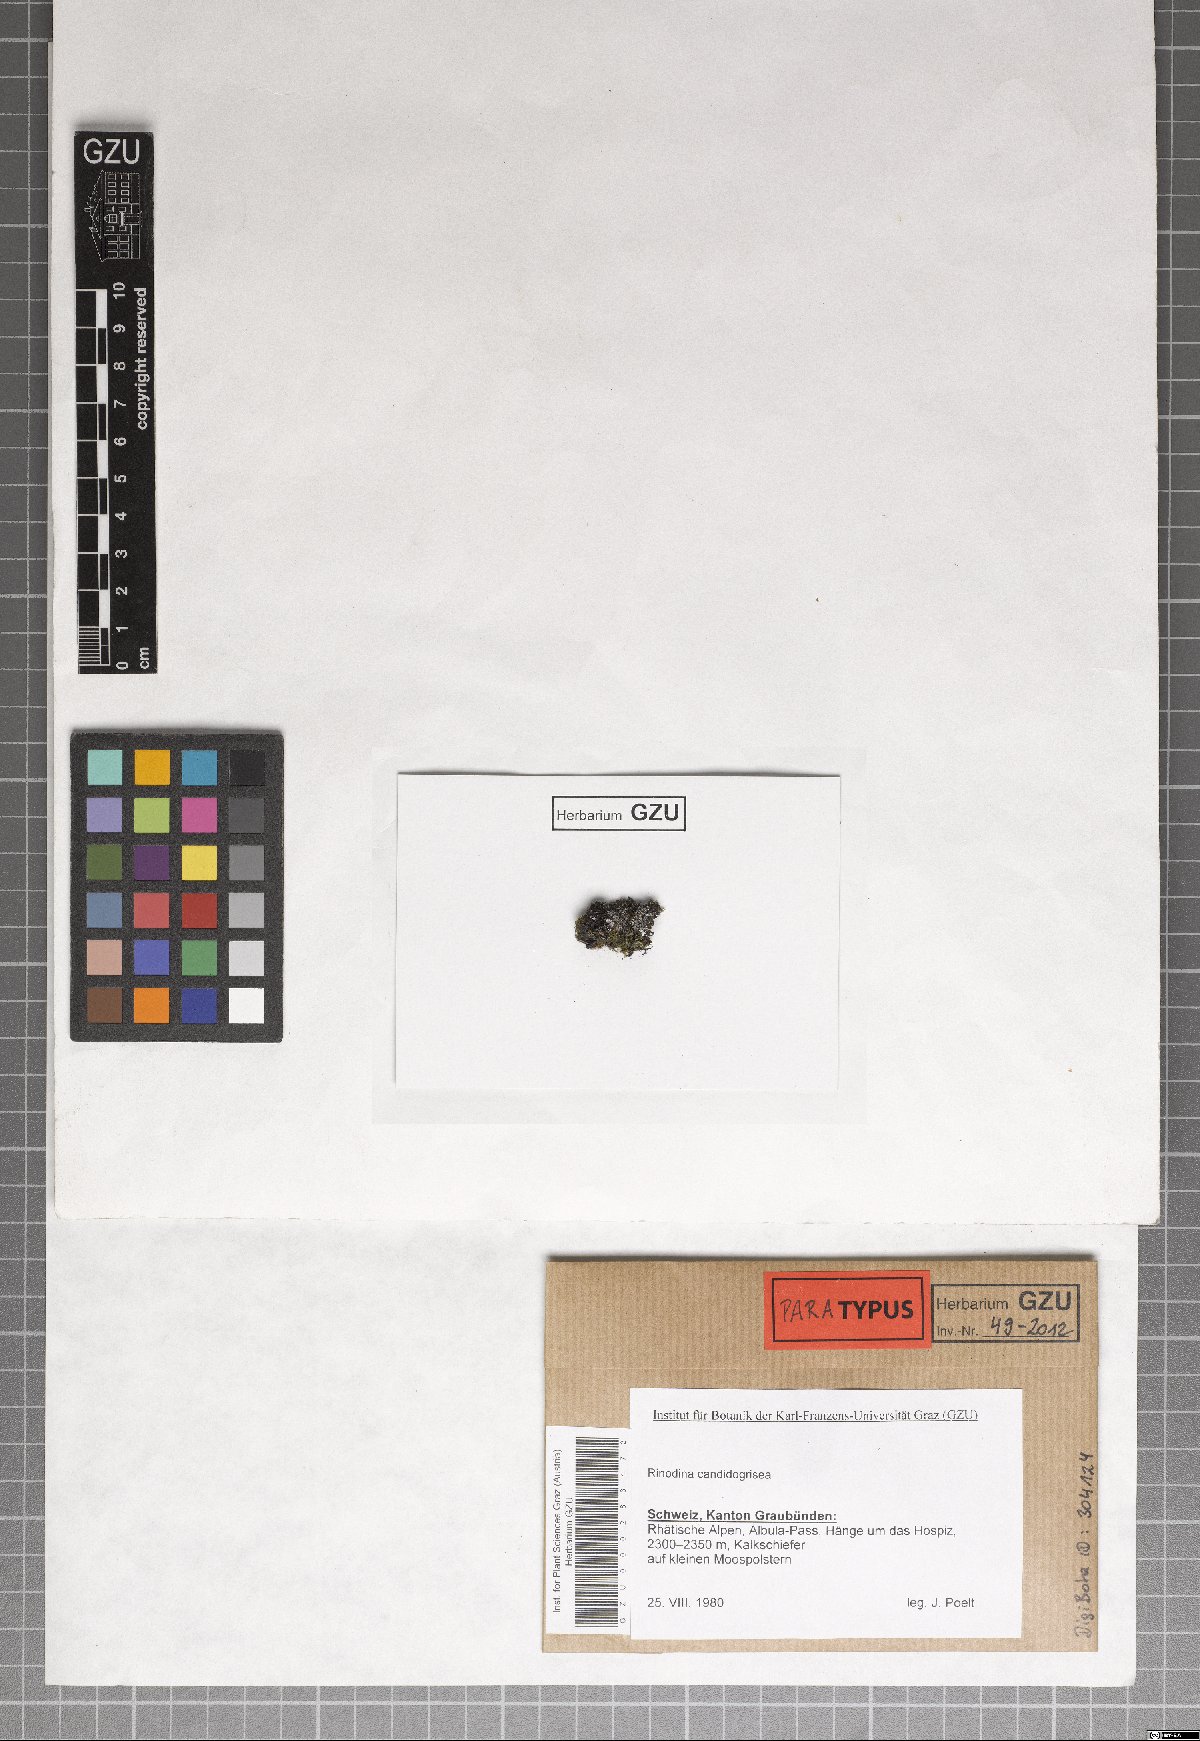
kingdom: Fungi
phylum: Ascomycota
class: Lecanoromycetes
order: Caliciales
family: Physciaceae
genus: Kudratovia
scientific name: Kudratovia candidogrisea
